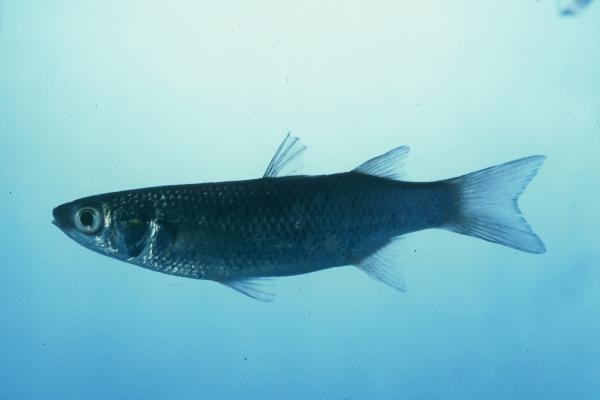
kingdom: Animalia
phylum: Chordata
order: Mugiliformes
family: Mugilidae
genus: Chelon
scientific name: Chelon dumerili
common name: Groovy mullet
